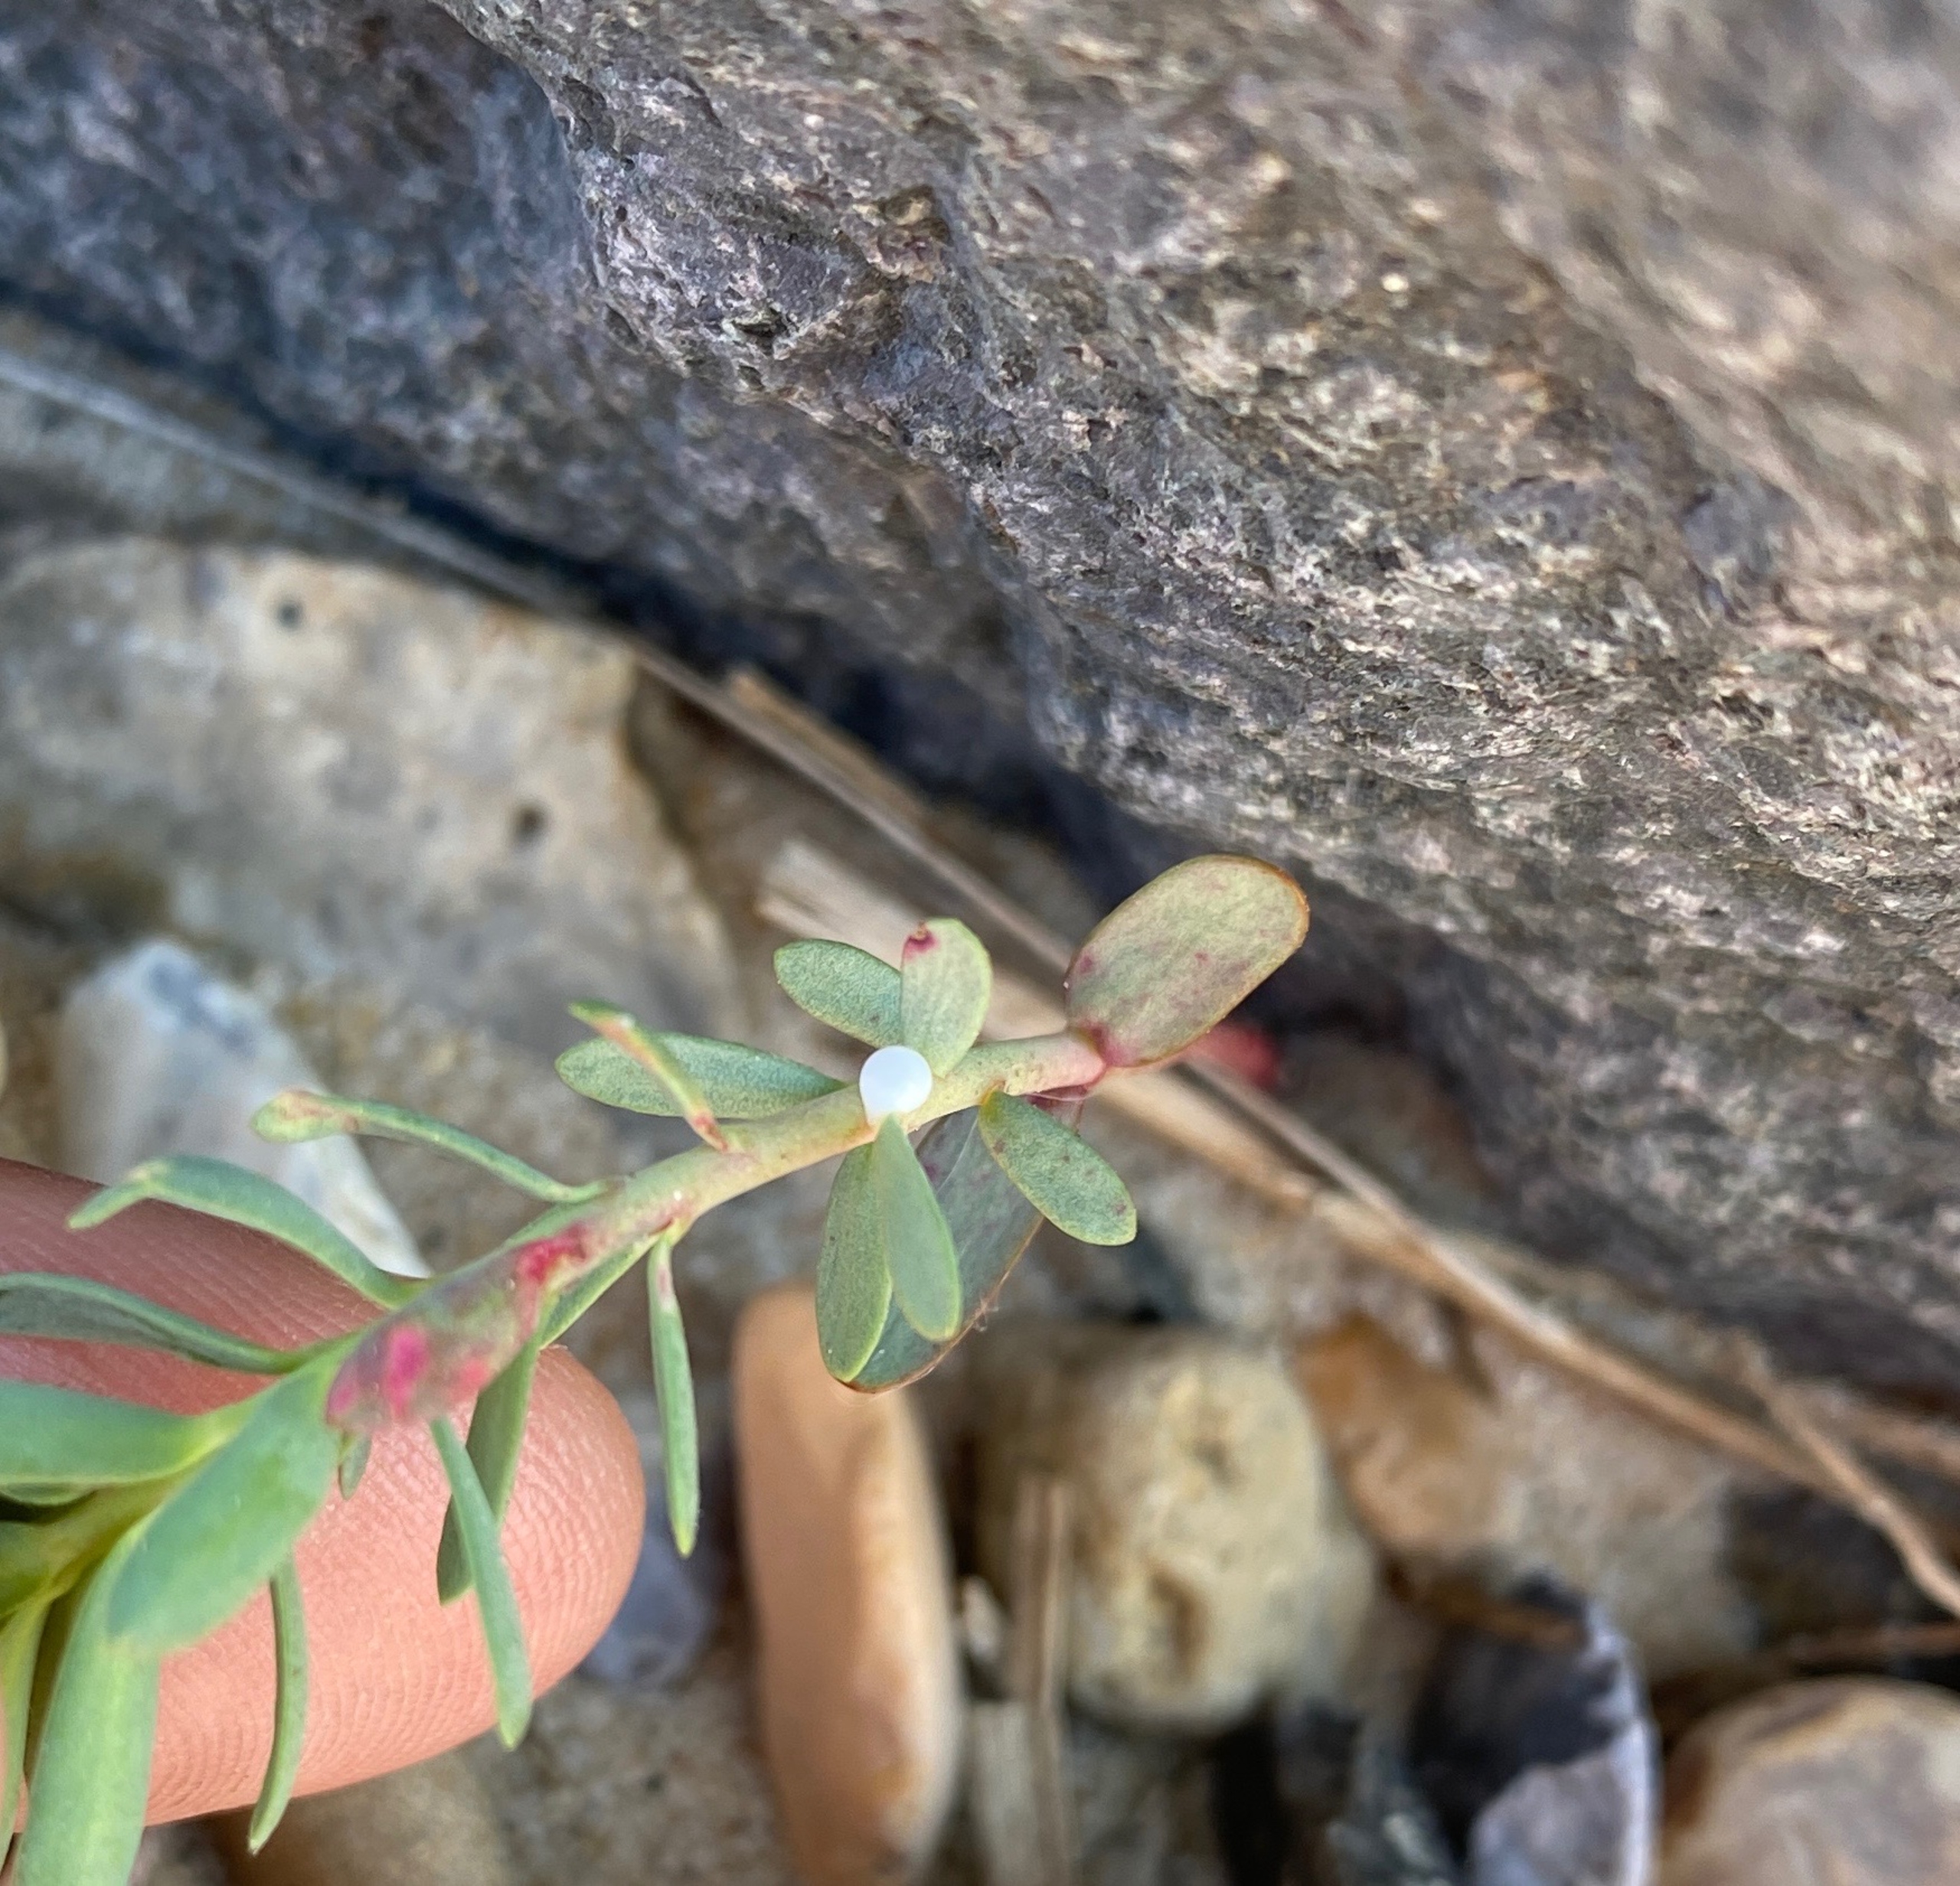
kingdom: Plantae
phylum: Tracheophyta
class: Magnoliopsida
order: Malpighiales
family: Euphorbiaceae
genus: Euphorbia
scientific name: Euphorbia paralias
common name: Kyst-vortemælk
